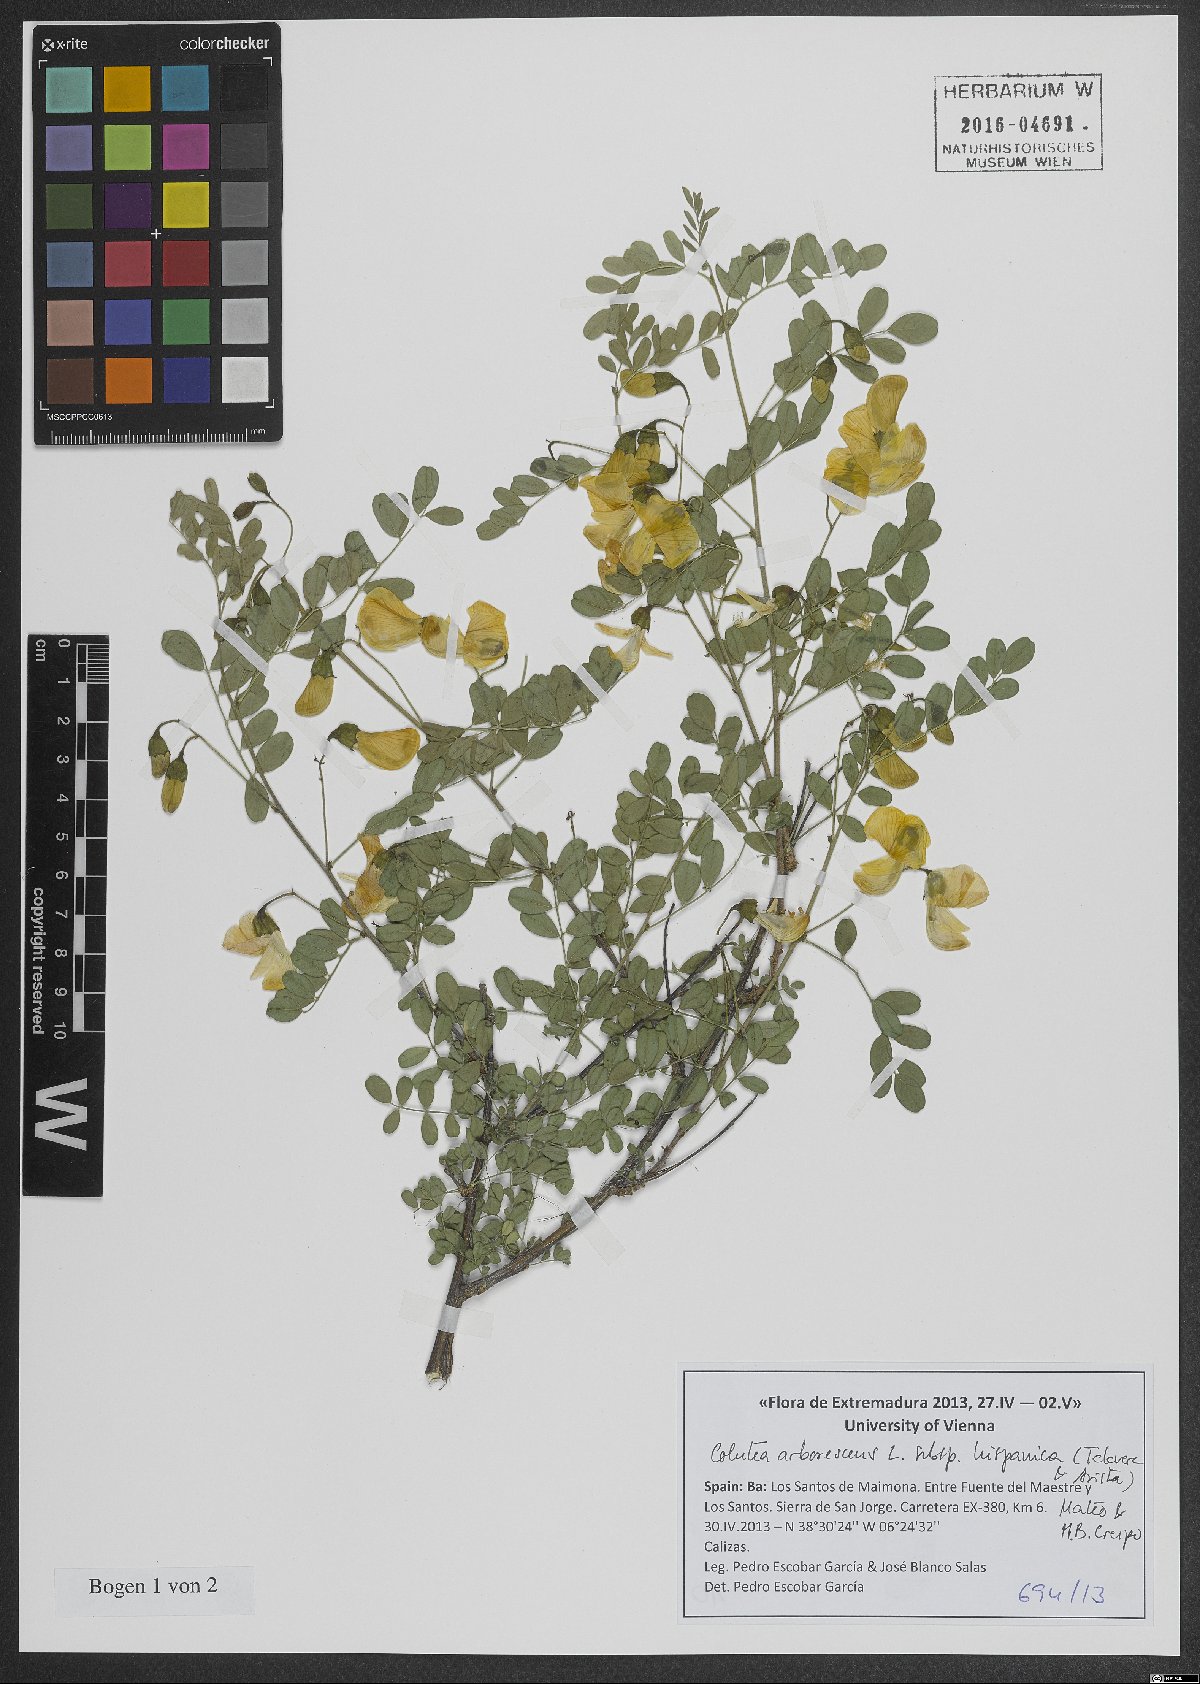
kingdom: Plantae
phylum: Tracheophyta
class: Magnoliopsida
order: Fabales
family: Fabaceae
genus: Colutea
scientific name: Colutea arborescens
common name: Bladder-senna
